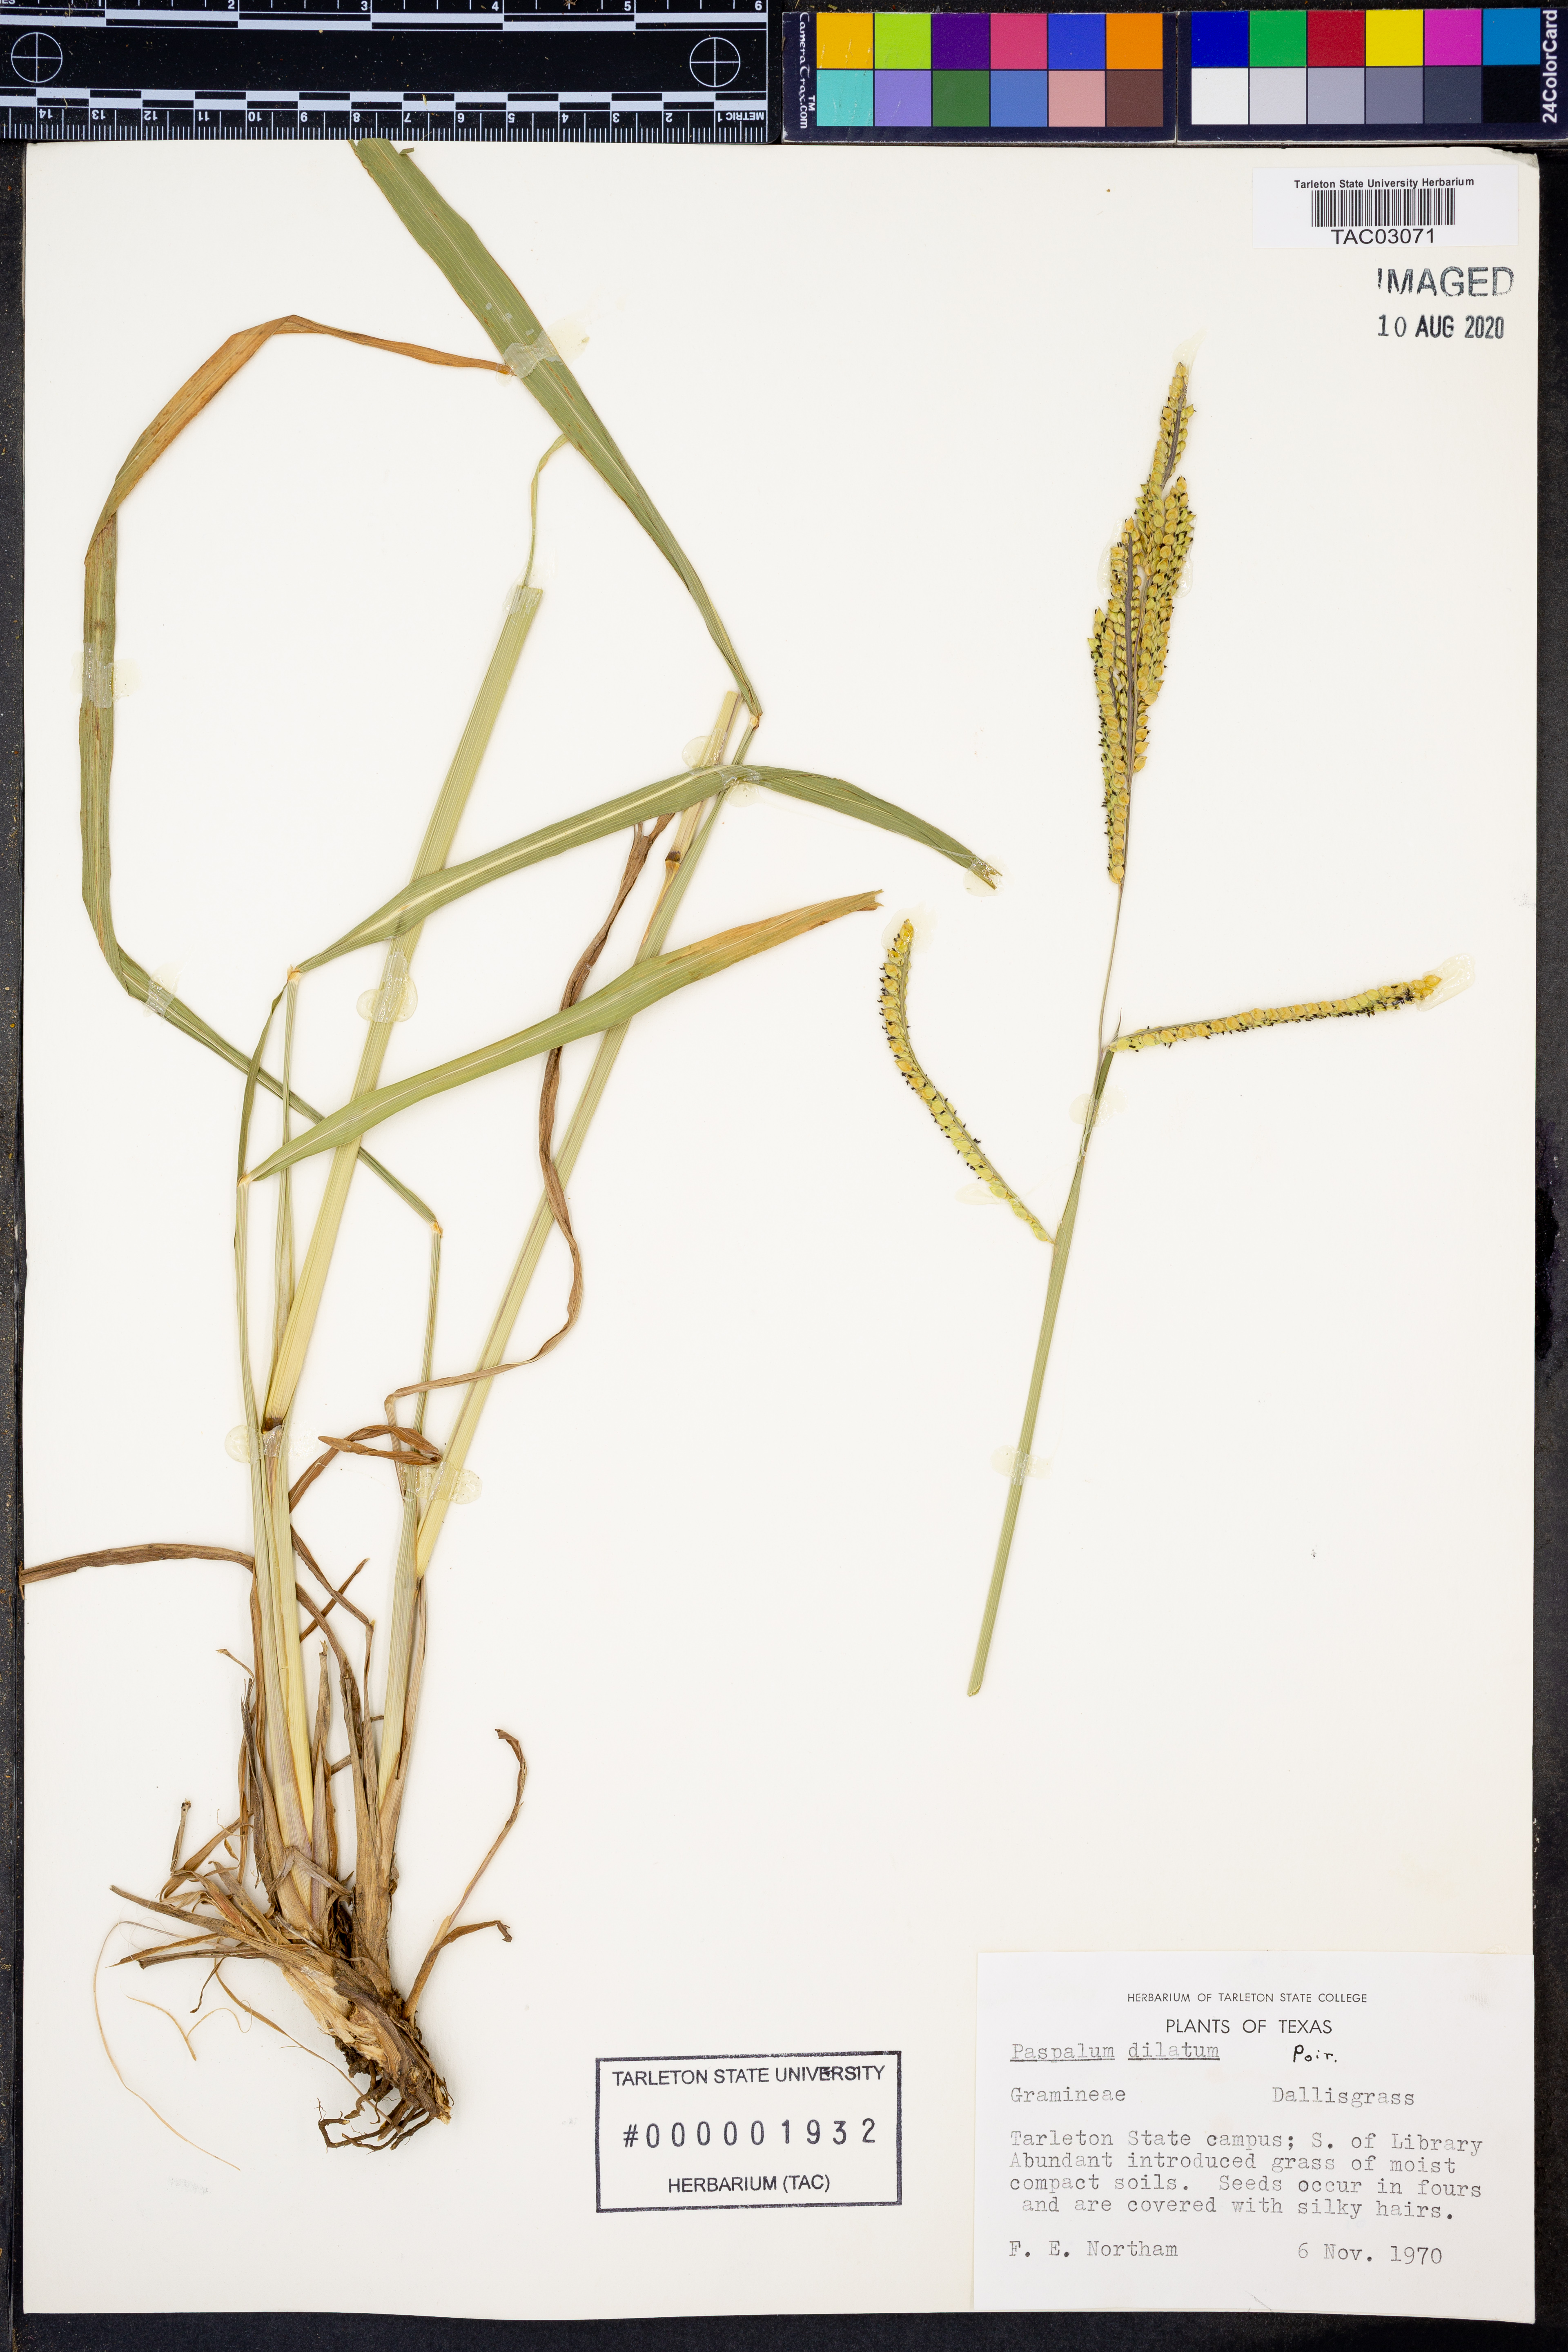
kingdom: Plantae
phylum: Tracheophyta
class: Liliopsida
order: Poales
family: Poaceae
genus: Paspalum
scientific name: Paspalum dilatatum
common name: Dallisgrass
